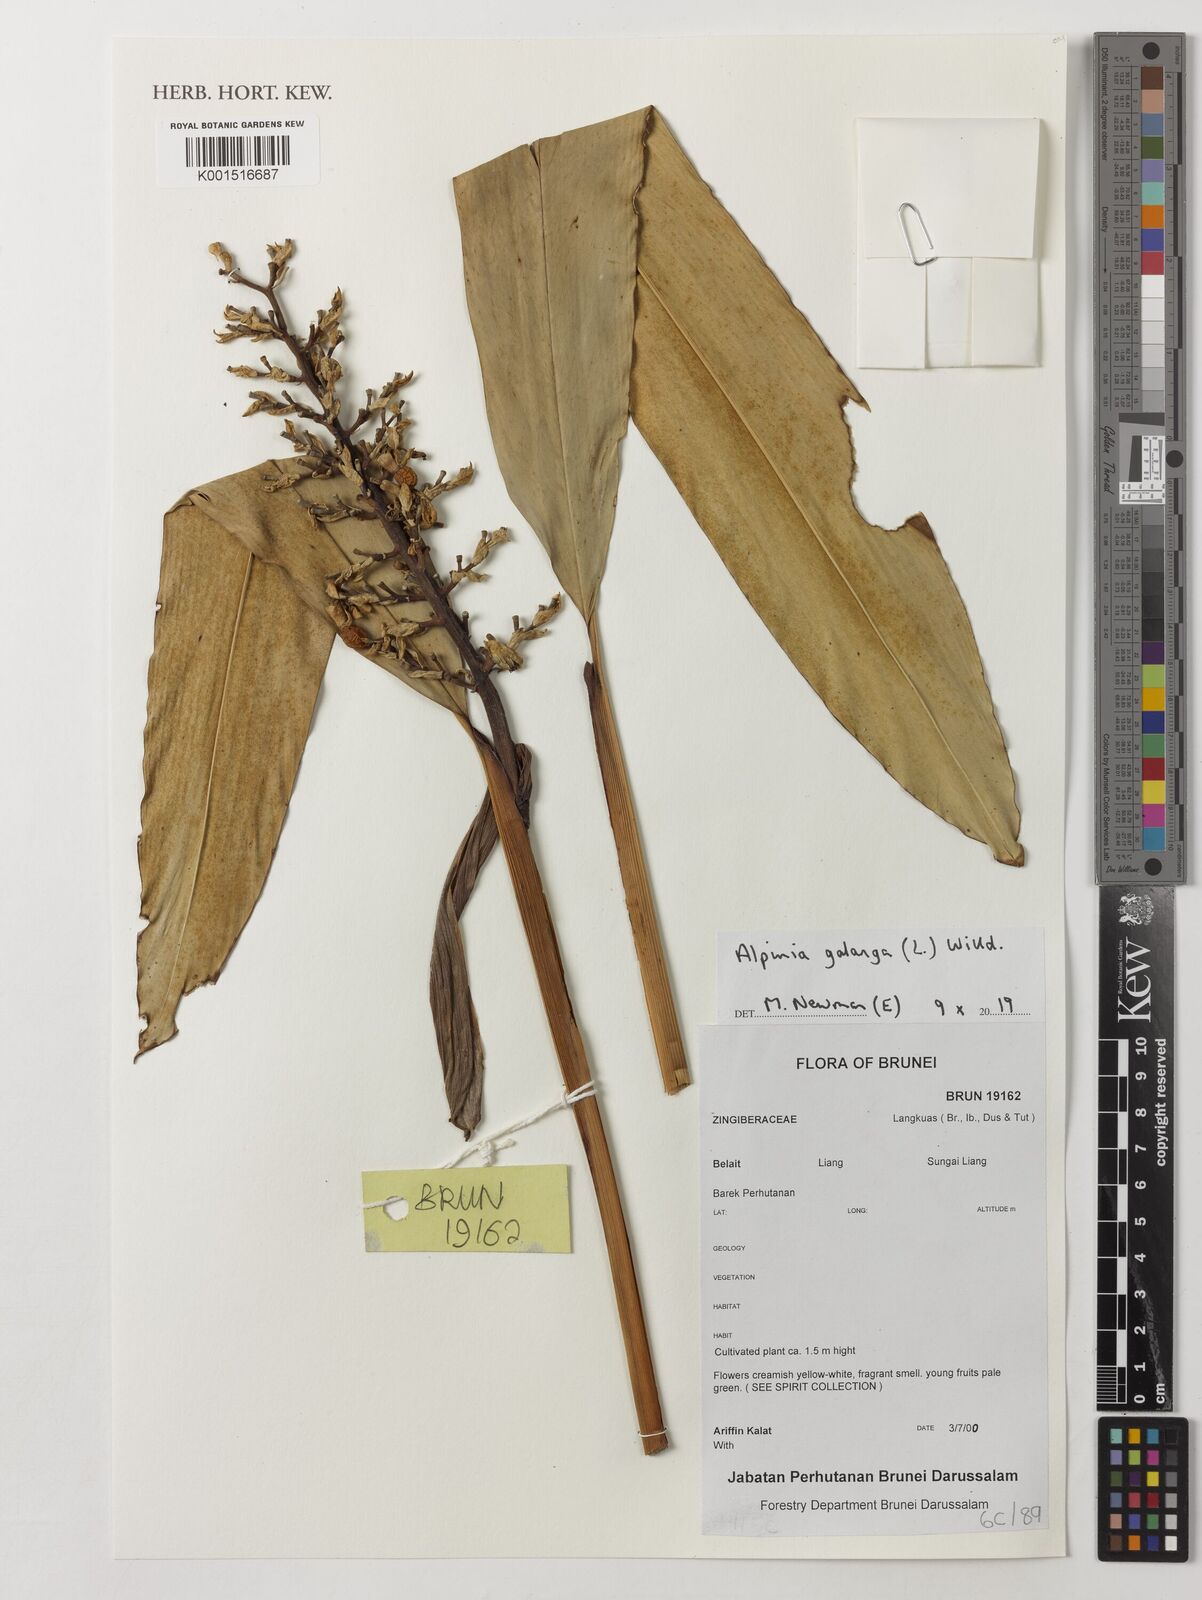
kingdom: Plantae
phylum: Tracheophyta
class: Liliopsida
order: Zingiberales
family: Zingiberaceae
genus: Alpinia
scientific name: Alpinia galanga
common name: Siamese-ginger
